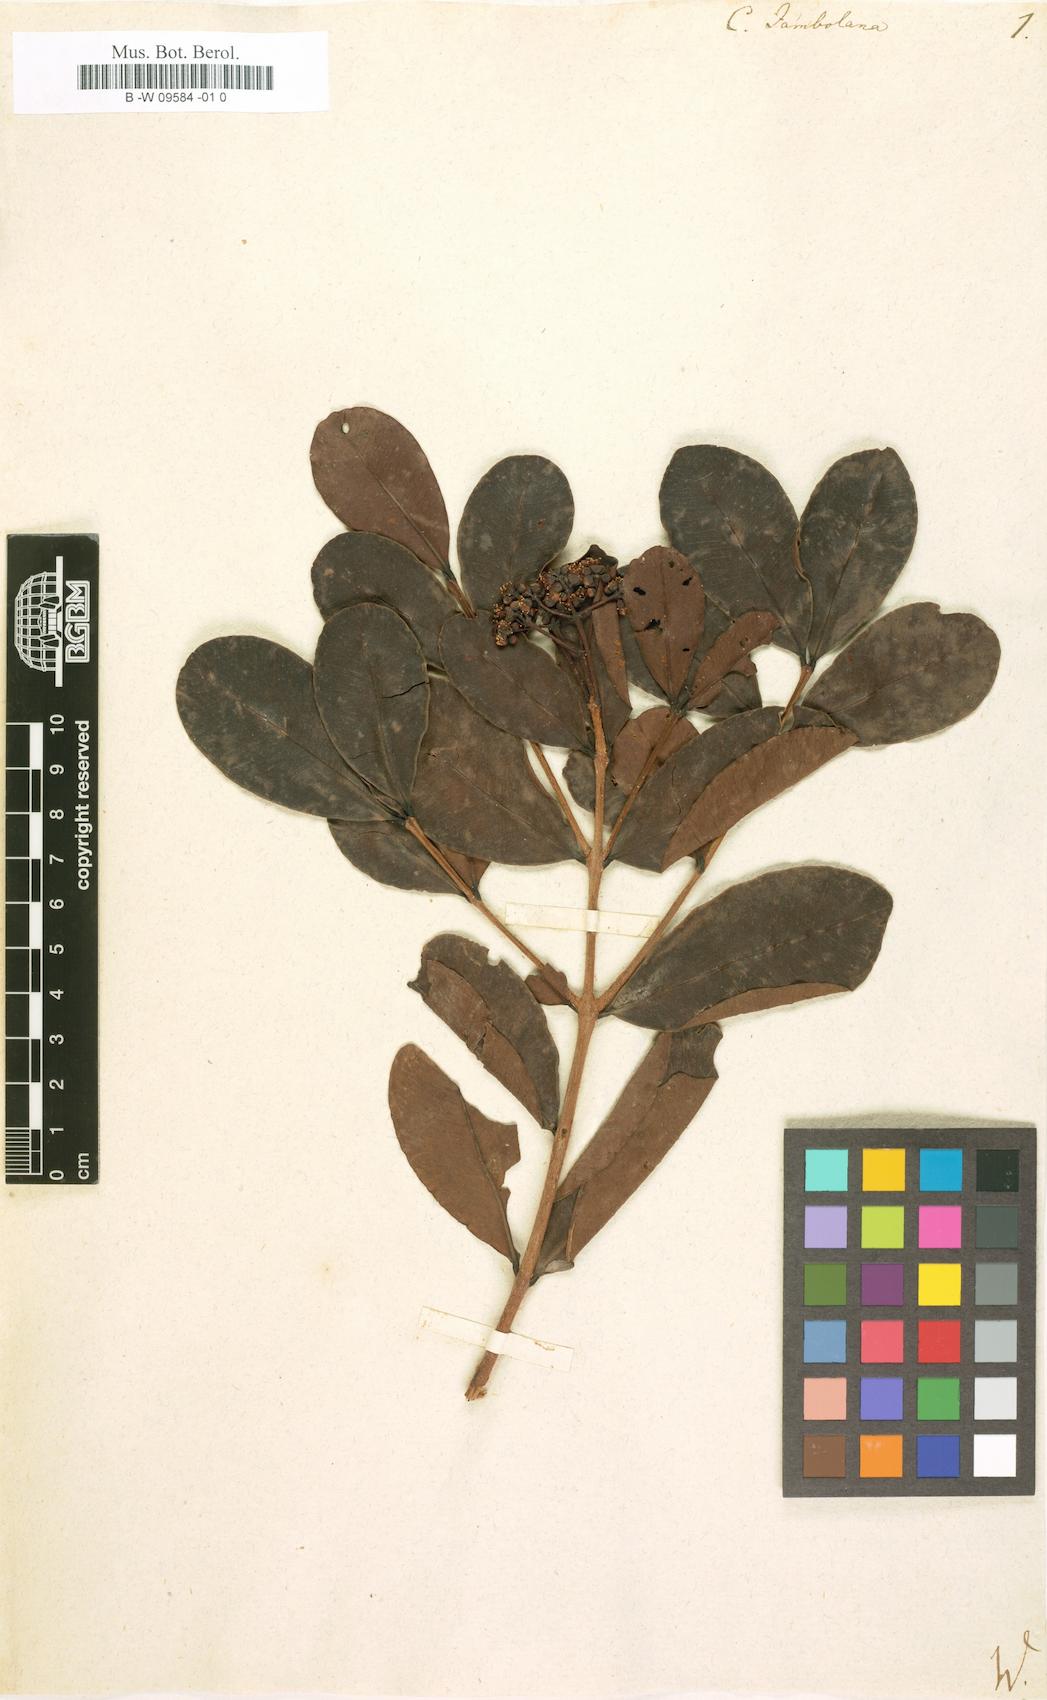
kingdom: Plantae
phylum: Tracheophyta
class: Magnoliopsida
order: Myrtales
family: Myrtaceae
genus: Calyptranthes
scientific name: Calyptranthes jambolana
